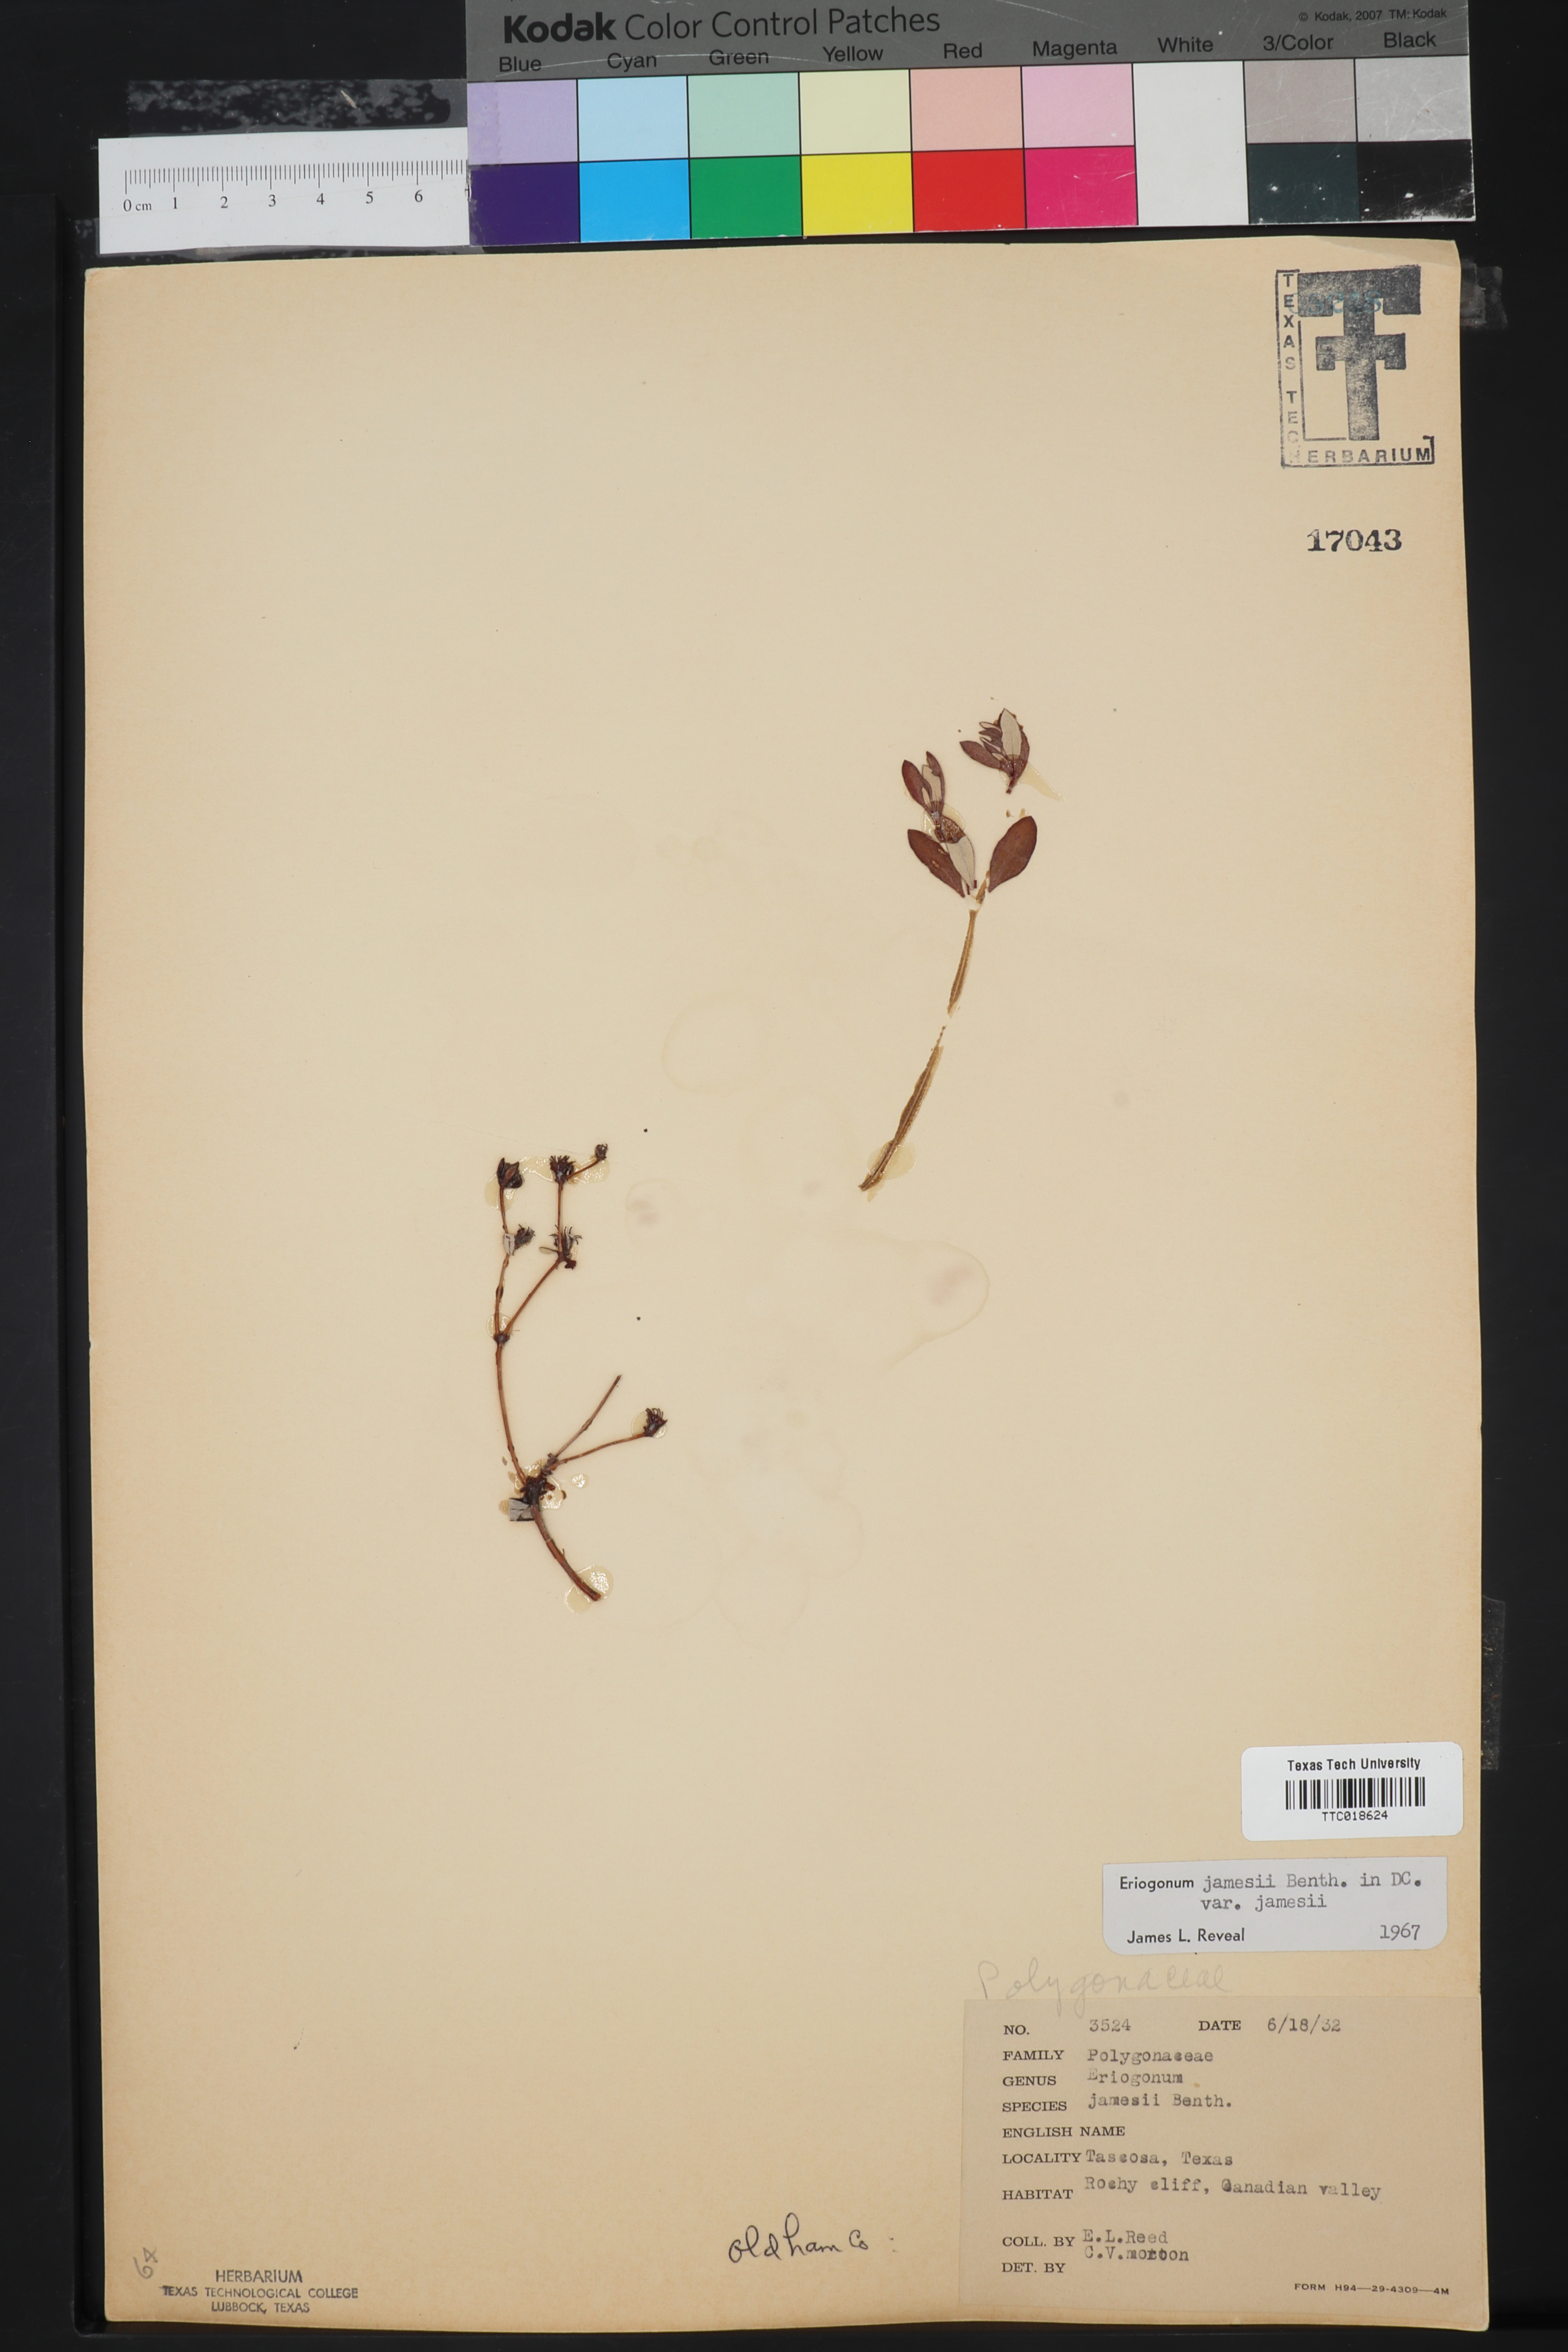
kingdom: Plantae
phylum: Tracheophyta
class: Magnoliopsida
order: Caryophyllales
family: Polygonaceae
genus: Eriogonum
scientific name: Eriogonum jamesii
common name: Antelope-sage
